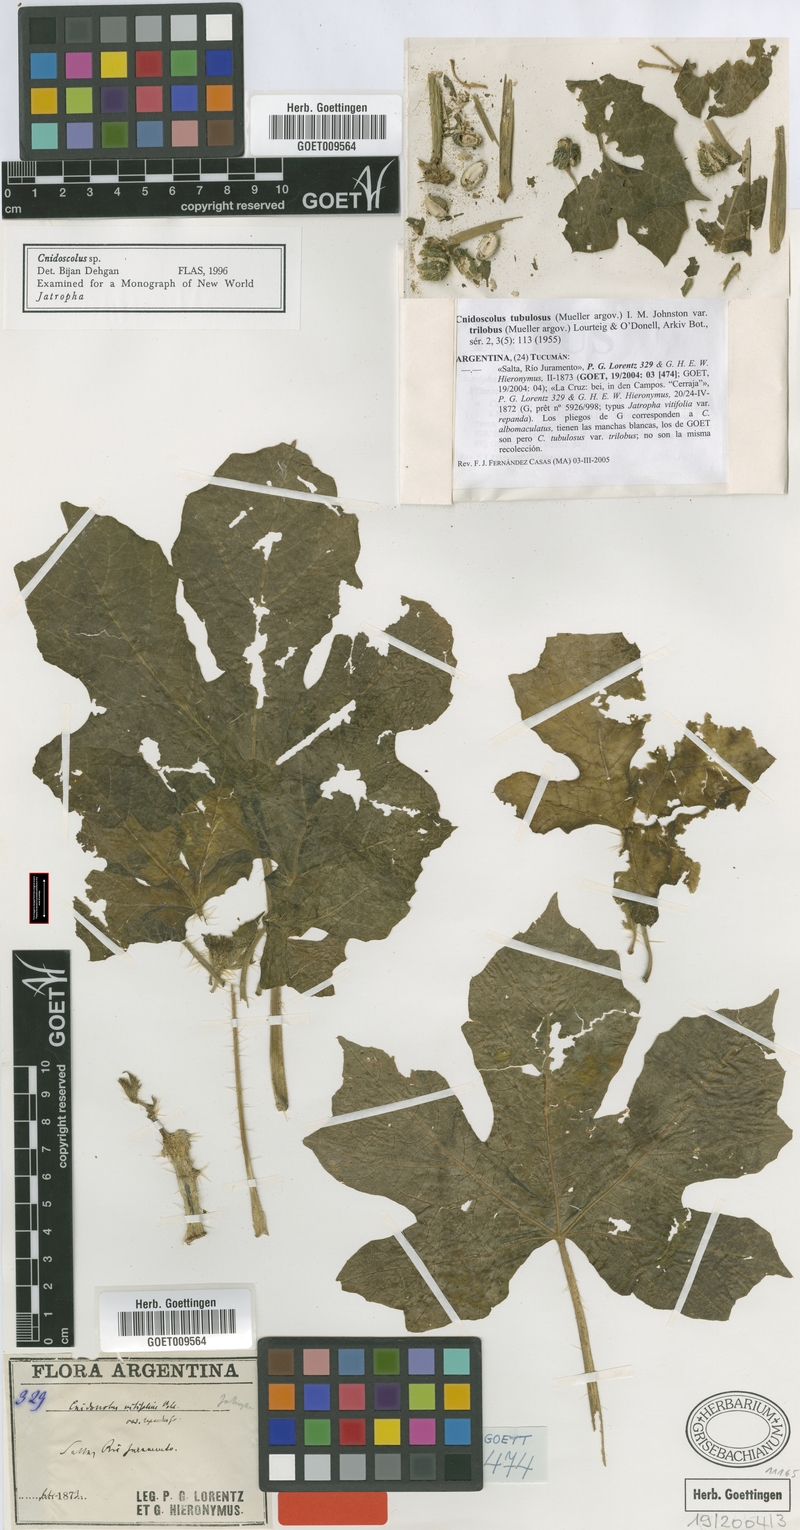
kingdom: Plantae
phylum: Tracheophyta
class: Magnoliopsida
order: Malpighiales
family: Euphorbiaceae
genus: Cnidoscolus
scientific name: Cnidoscolus urens
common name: Bull-nettle
